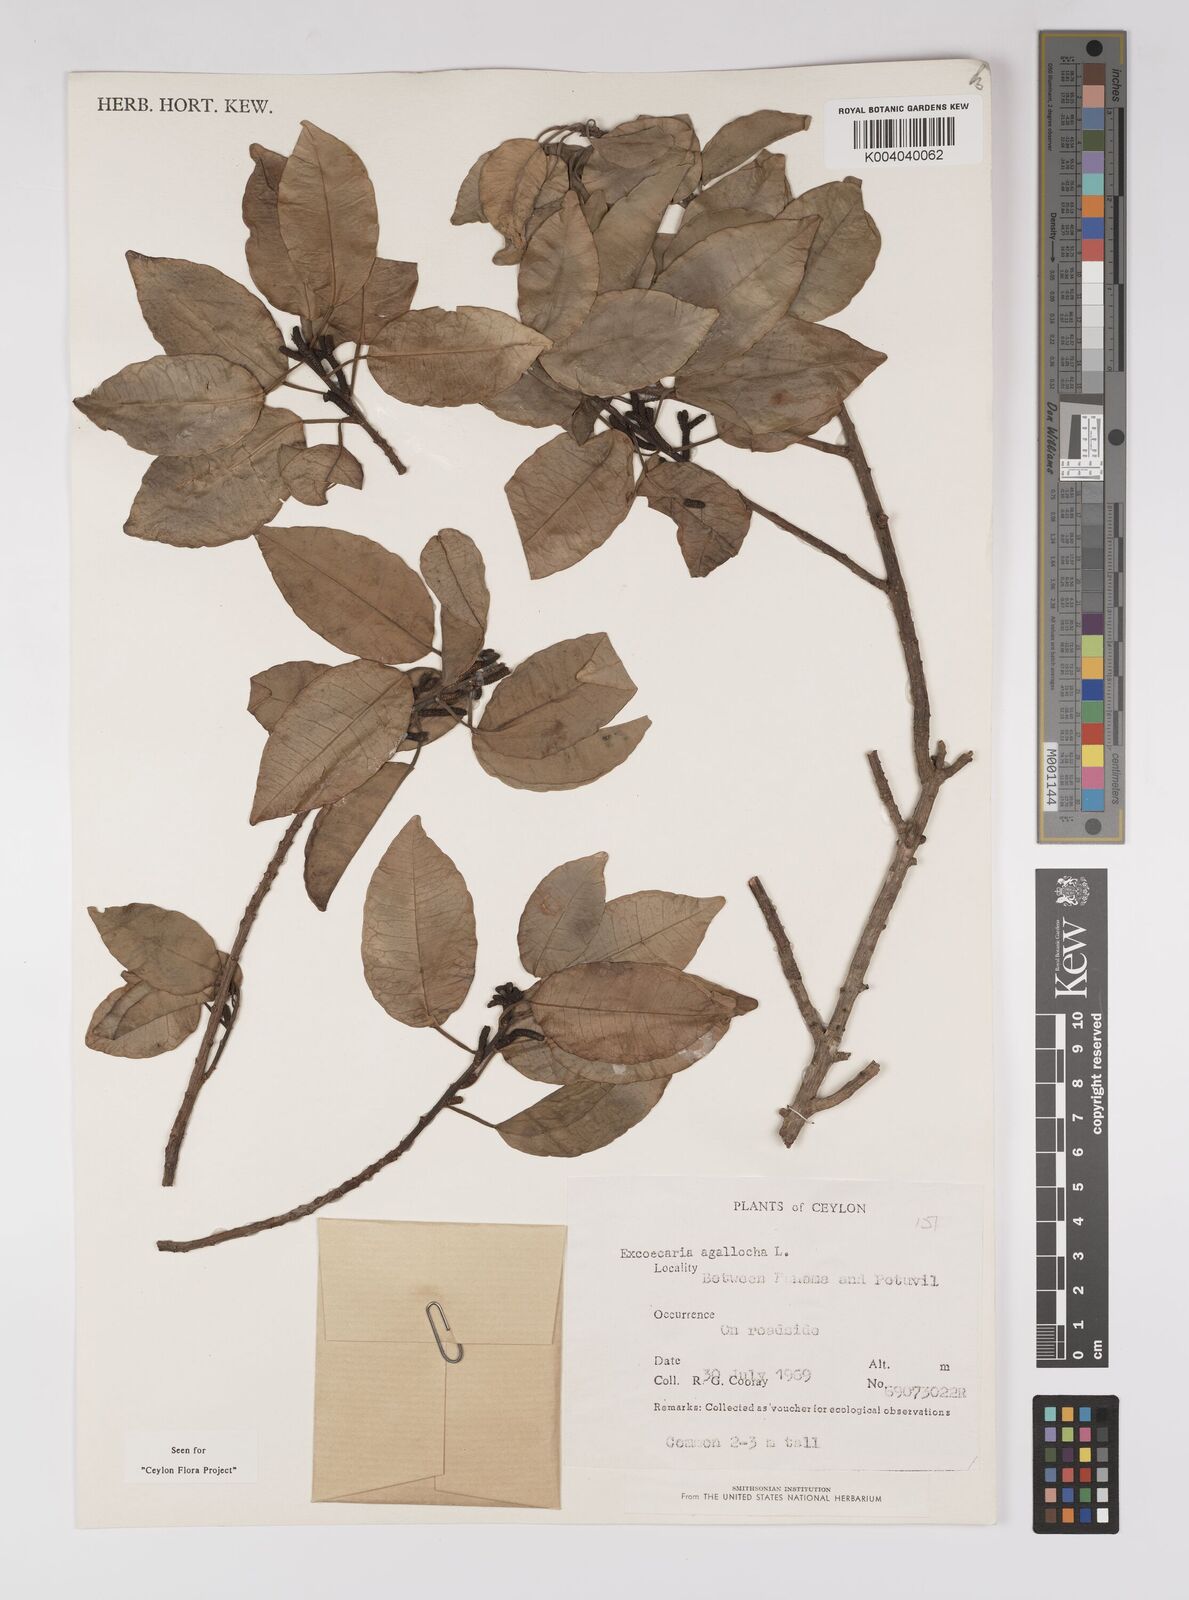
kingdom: Plantae
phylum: Tracheophyta
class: Magnoliopsida
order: Malpighiales
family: Euphorbiaceae
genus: Excoecaria
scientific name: Excoecaria agallocha
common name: River poisontree
